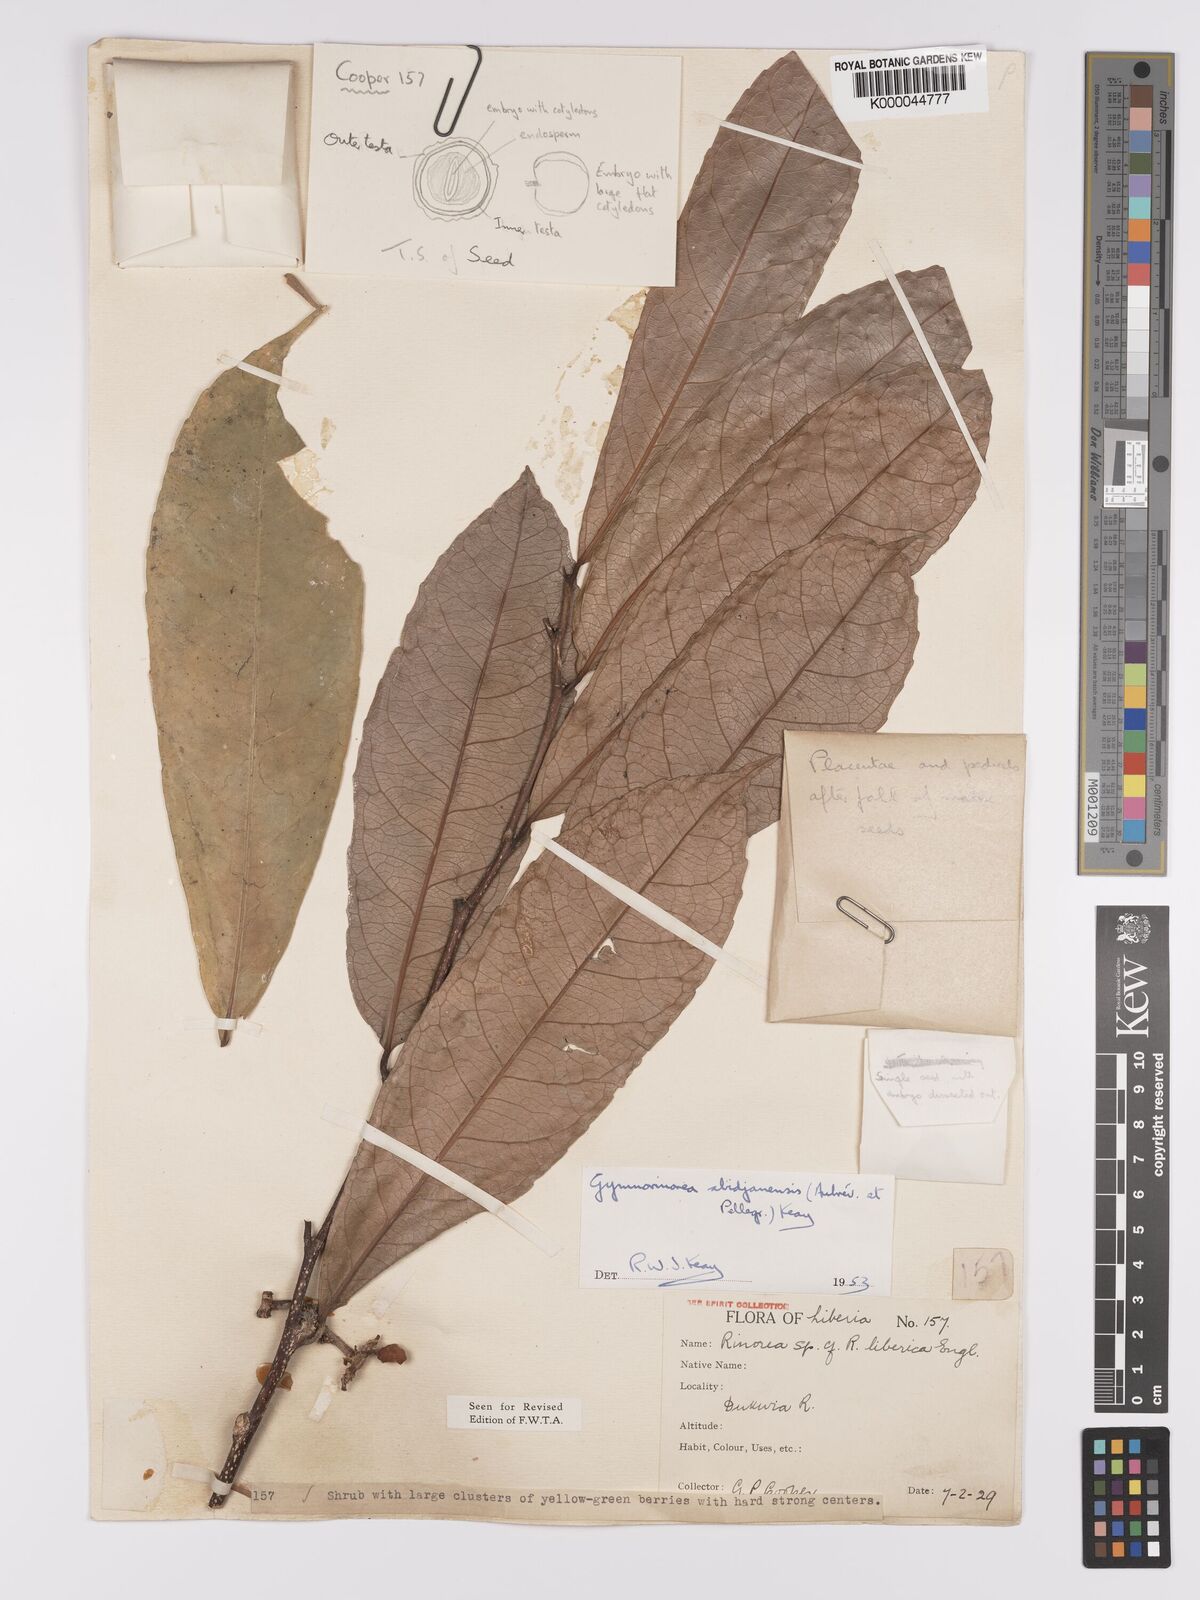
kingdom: Plantae
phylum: Tracheophyta
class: Magnoliopsida
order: Malpighiales
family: Violaceae
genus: Decorsella
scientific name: Decorsella paradoxa
